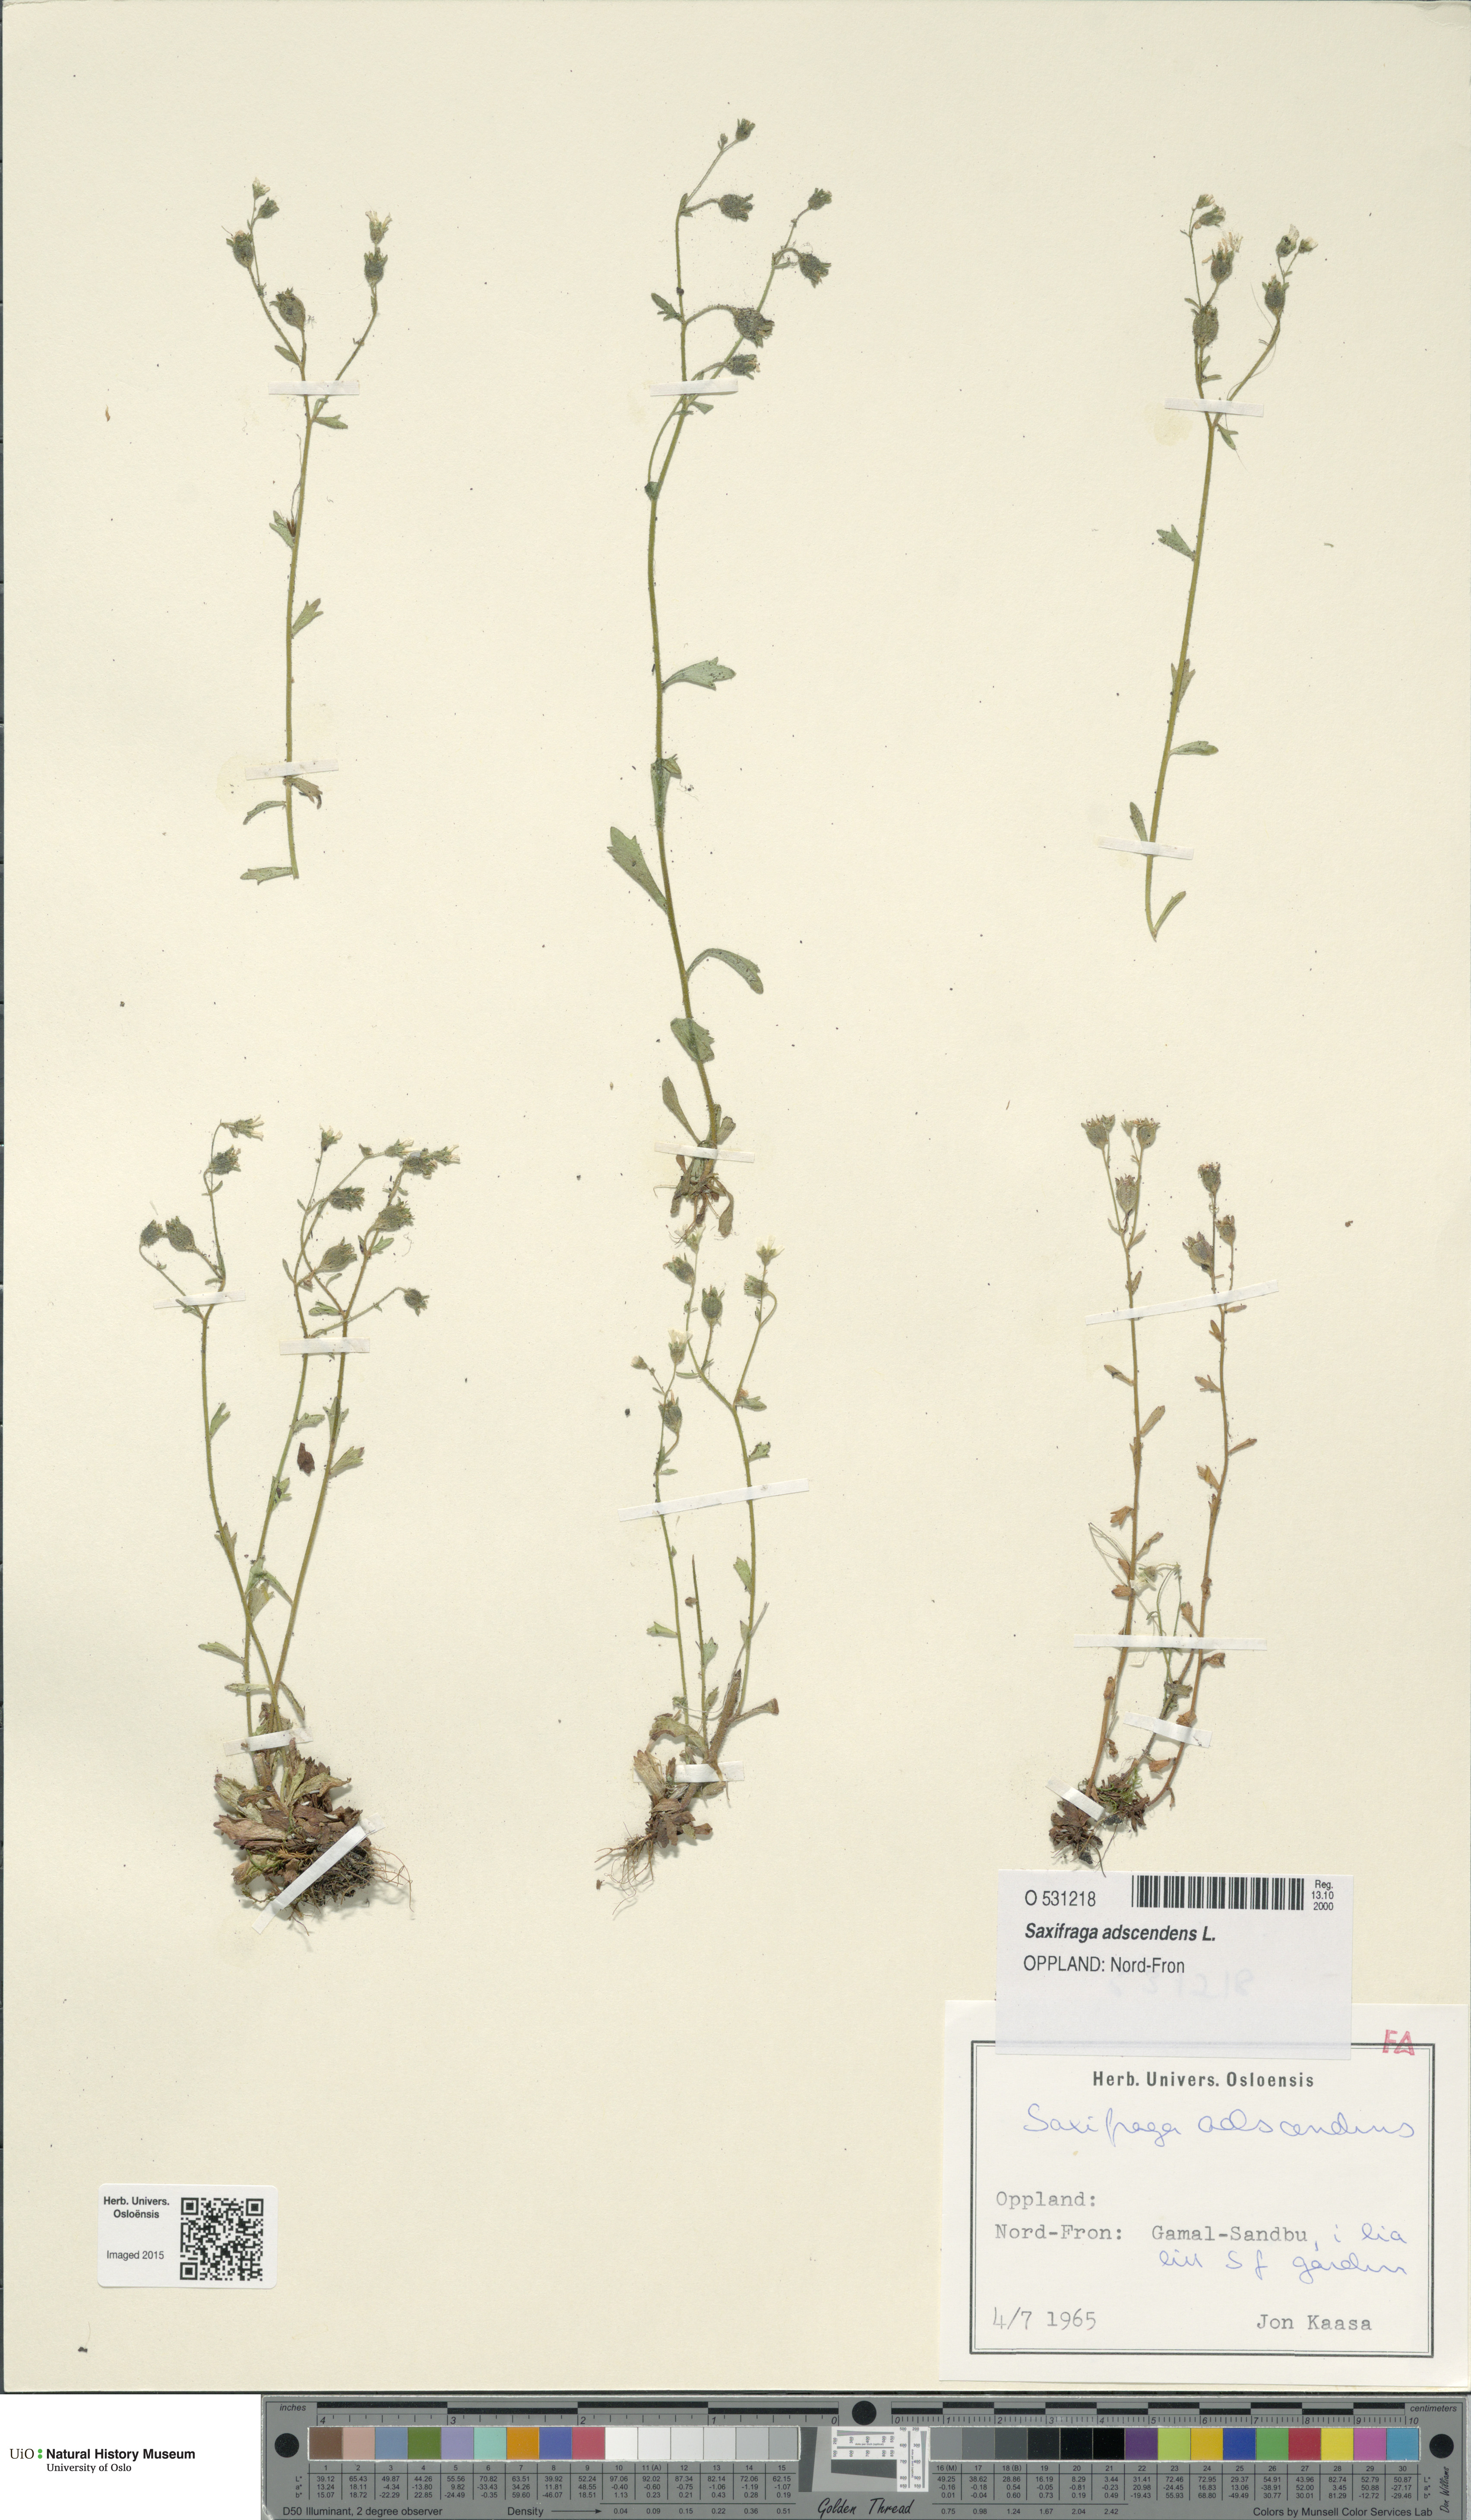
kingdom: Plantae
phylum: Tracheophyta
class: Magnoliopsida
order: Saxifragales
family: Saxifragaceae
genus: Saxifraga
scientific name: Saxifraga adscendens
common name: Ascending saxifrage
